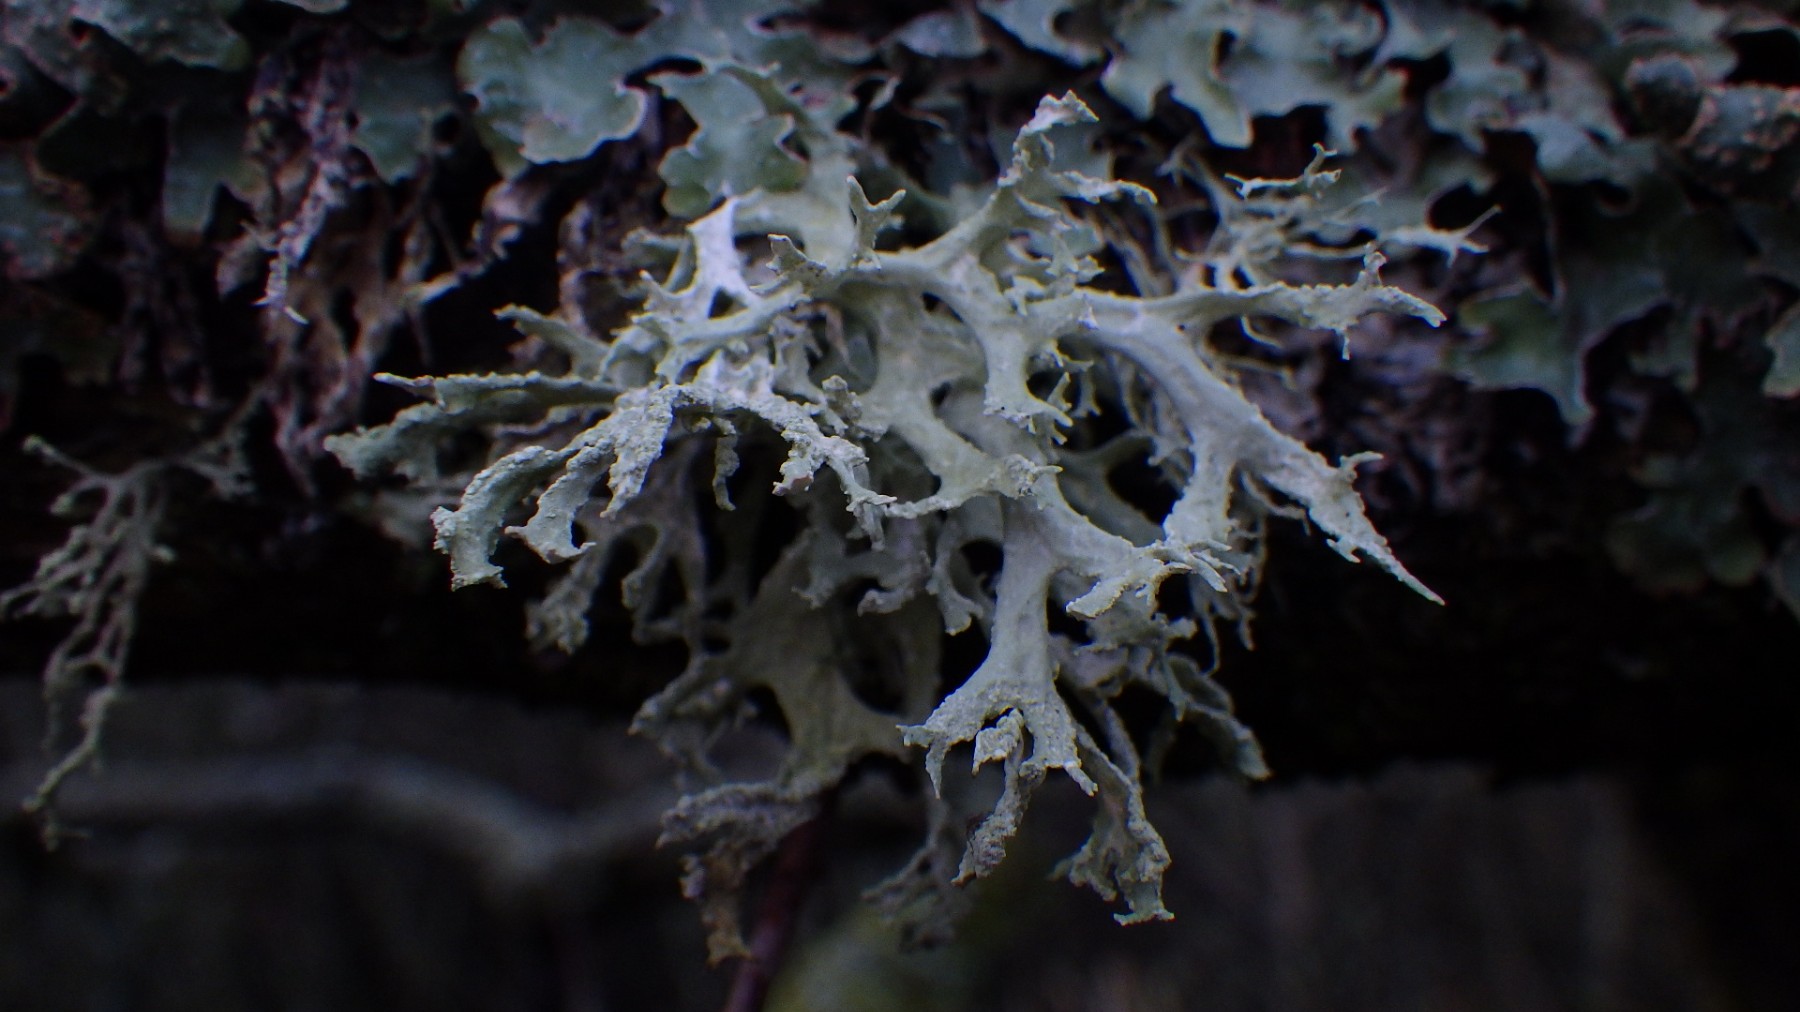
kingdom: Fungi
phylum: Ascomycota
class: Lecanoromycetes
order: Lecanorales
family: Parmeliaceae
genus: Evernia
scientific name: Evernia prunastri
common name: almindelig slåenlav
